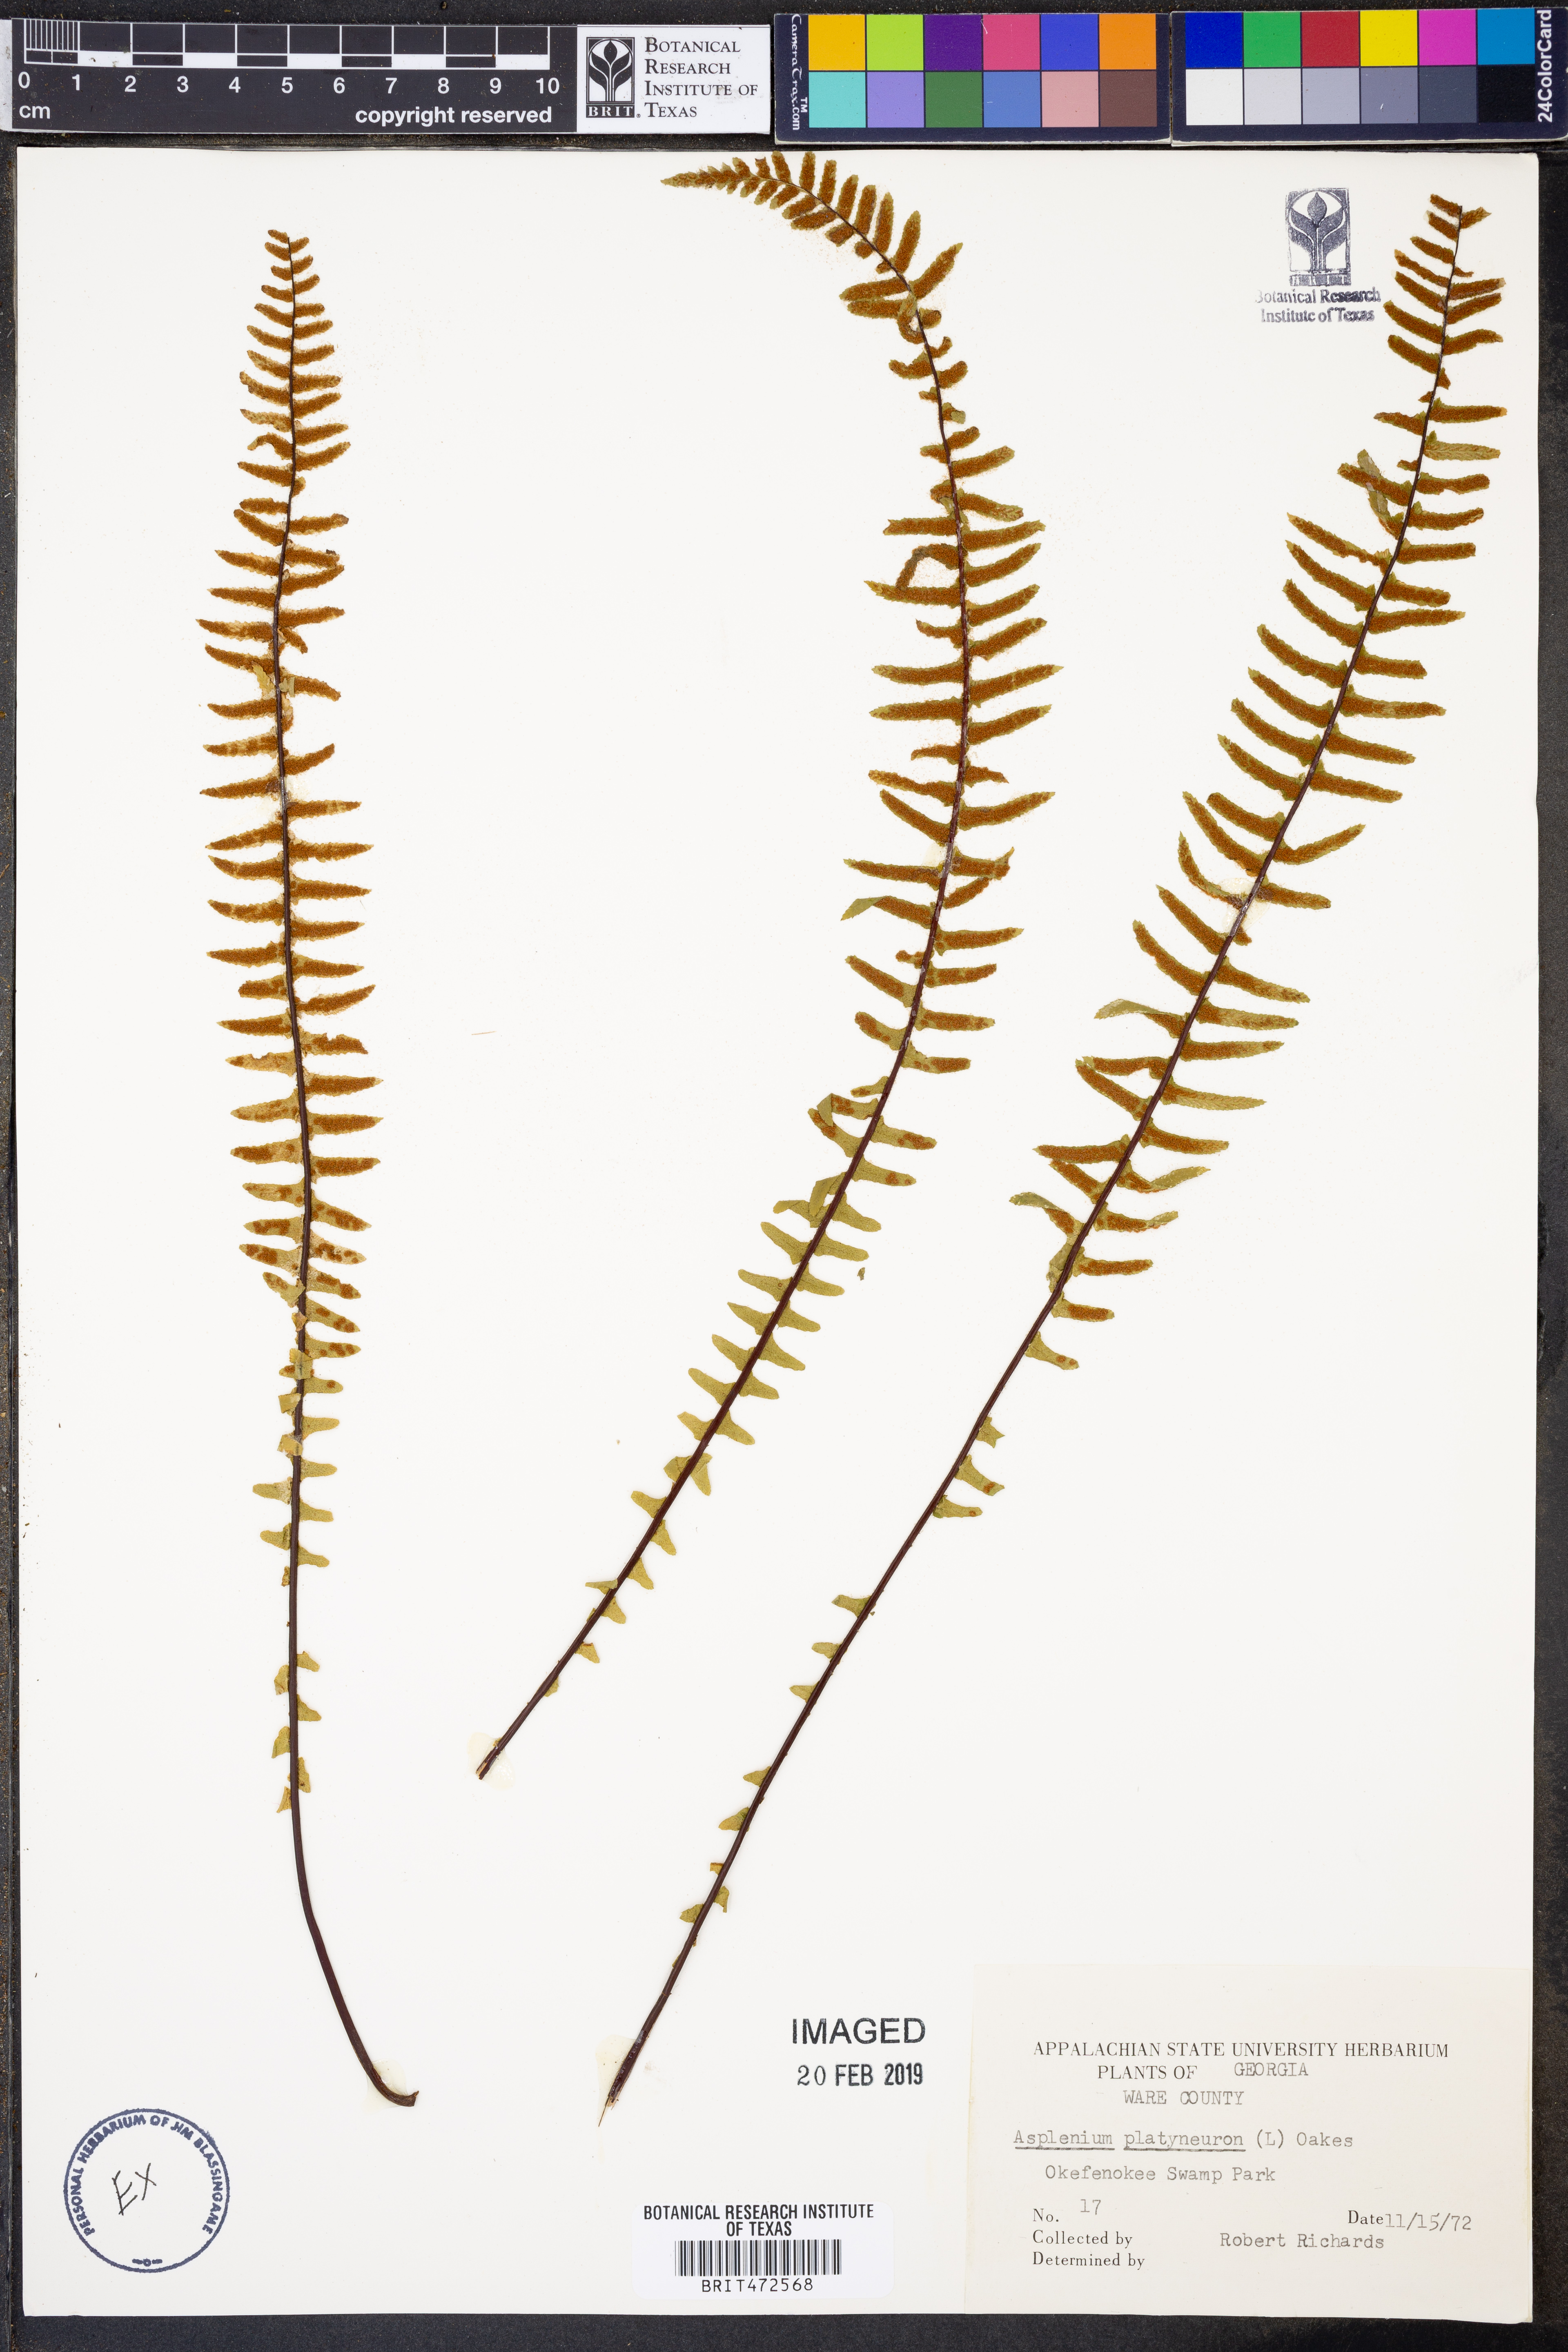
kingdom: Plantae
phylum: Tracheophyta
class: Polypodiopsida
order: Polypodiales
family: Aspleniaceae
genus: Asplenium
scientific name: Asplenium platyneuron
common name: Ebony spleenwort
